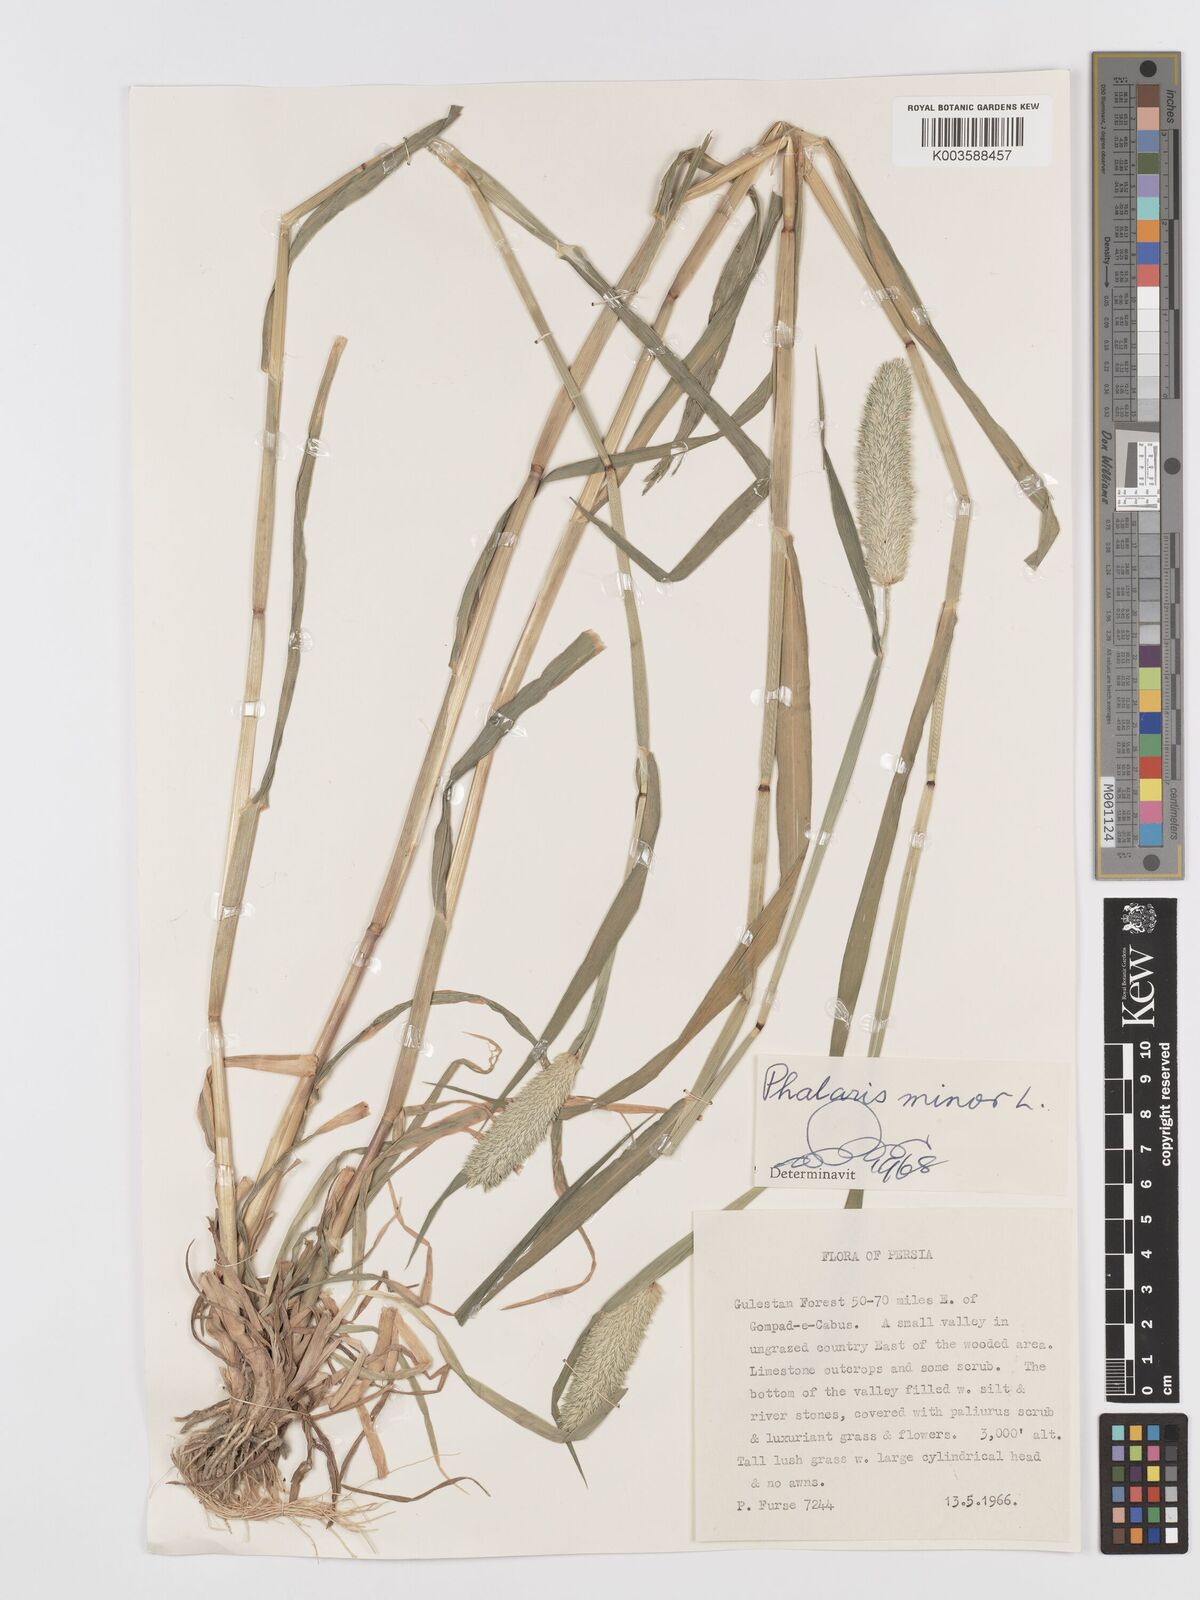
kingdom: Plantae
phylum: Tracheophyta
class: Liliopsida
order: Poales
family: Poaceae
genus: Phalaris
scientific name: Phalaris minor
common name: Littleseed canarygrass
